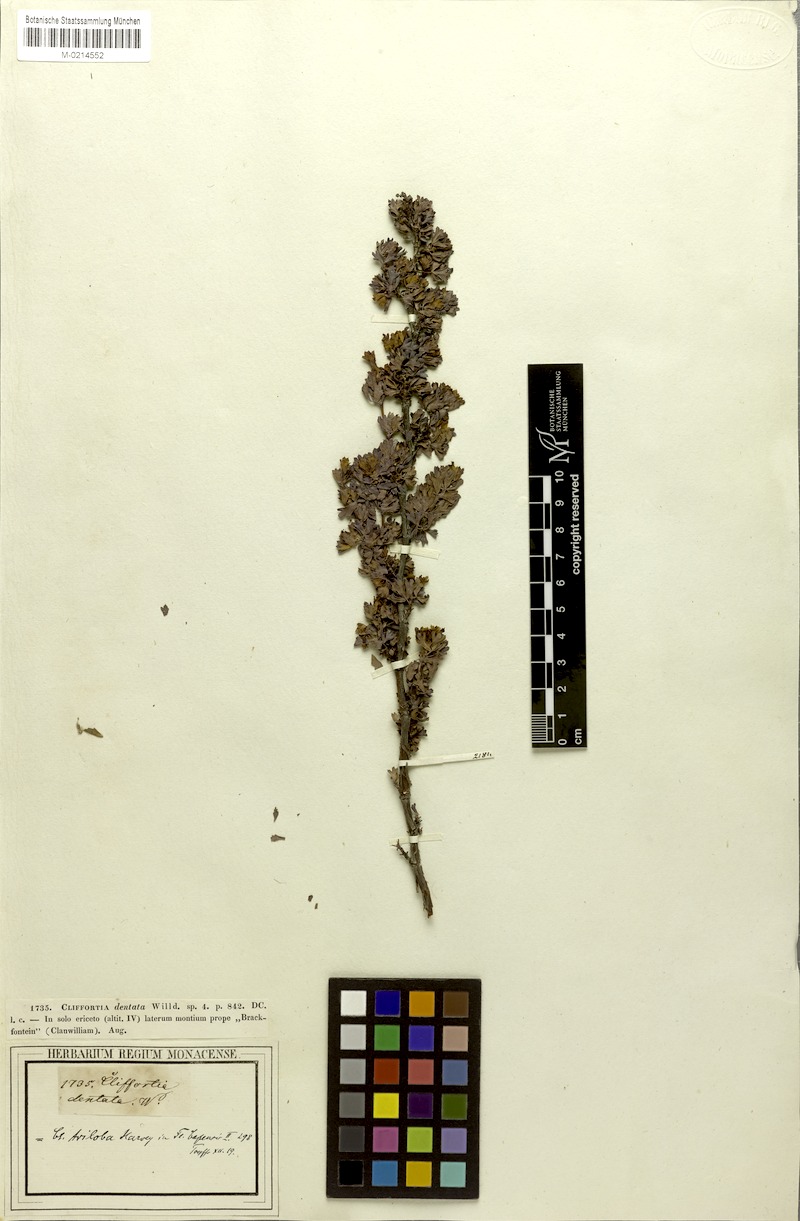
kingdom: Plantae
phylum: Tracheophyta
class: Magnoliopsida
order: Rosales
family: Rosaceae
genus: Cliffortia
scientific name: Cliffortia triloba
